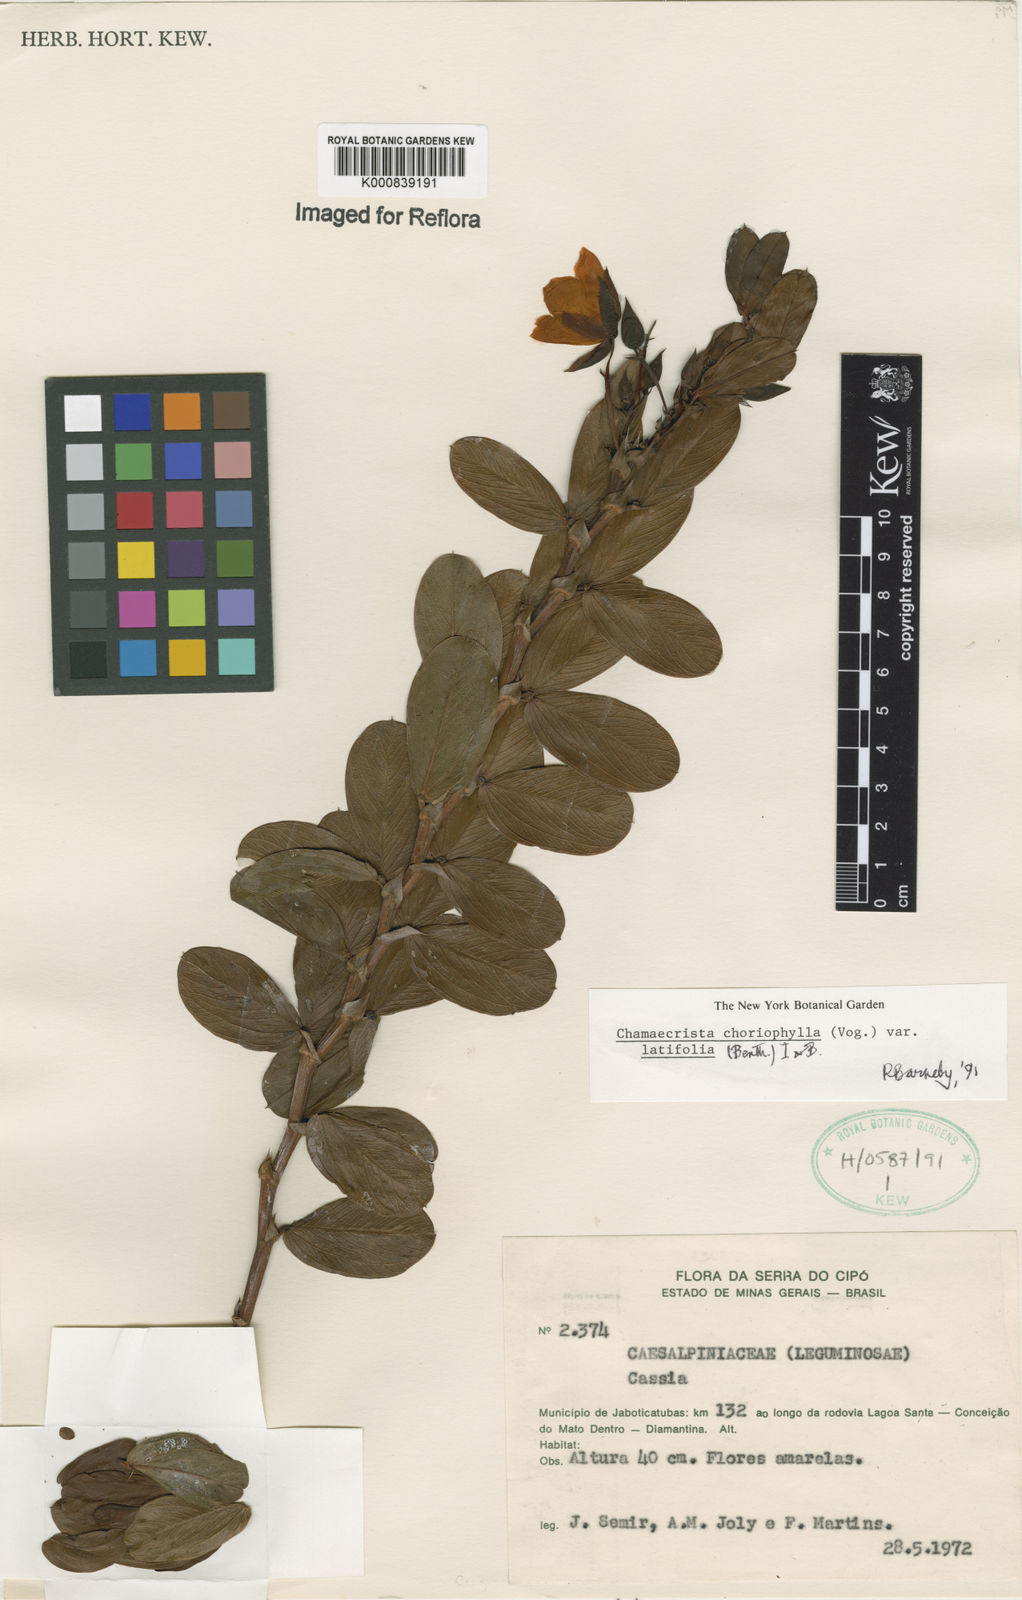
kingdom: Plantae
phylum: Tracheophyta
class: Magnoliopsida
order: Fabales
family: Fabaceae
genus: Chamaecrista
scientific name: Chamaecrista latifolia
